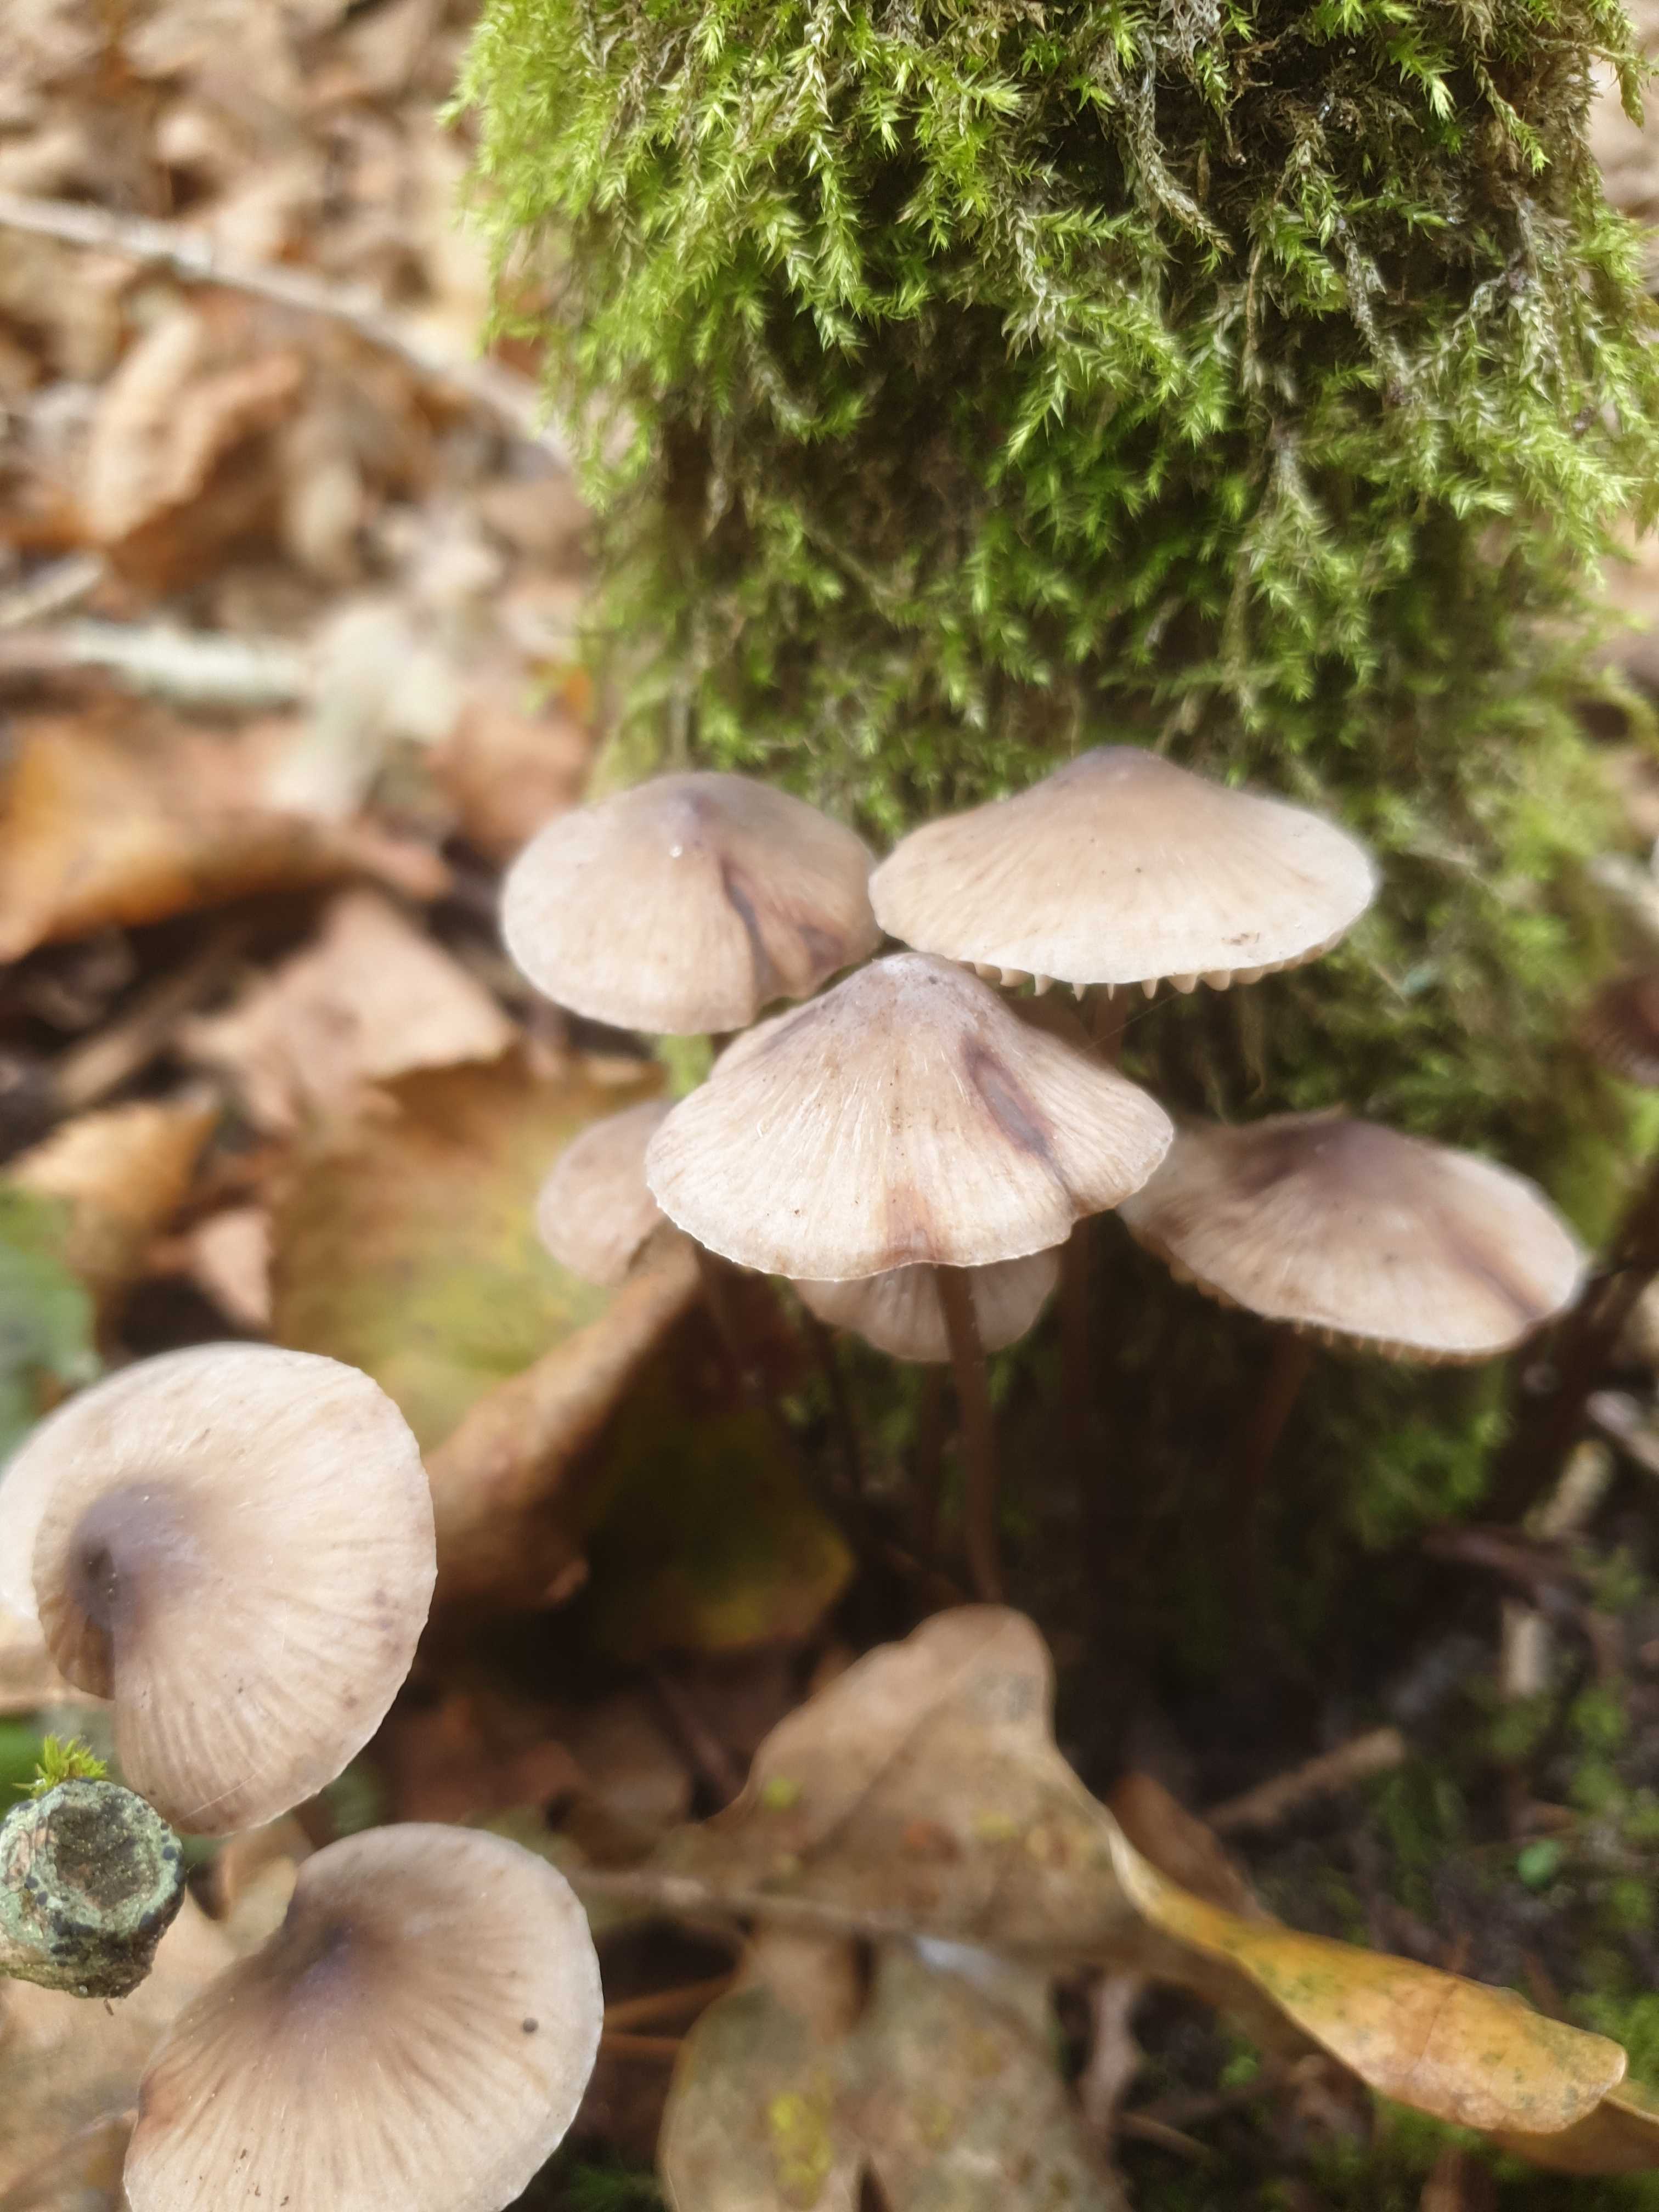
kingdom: Fungi
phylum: Basidiomycota
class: Agaricomycetes
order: Agaricales
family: Mycenaceae
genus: Mycena
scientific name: Mycena
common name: huesvamp
